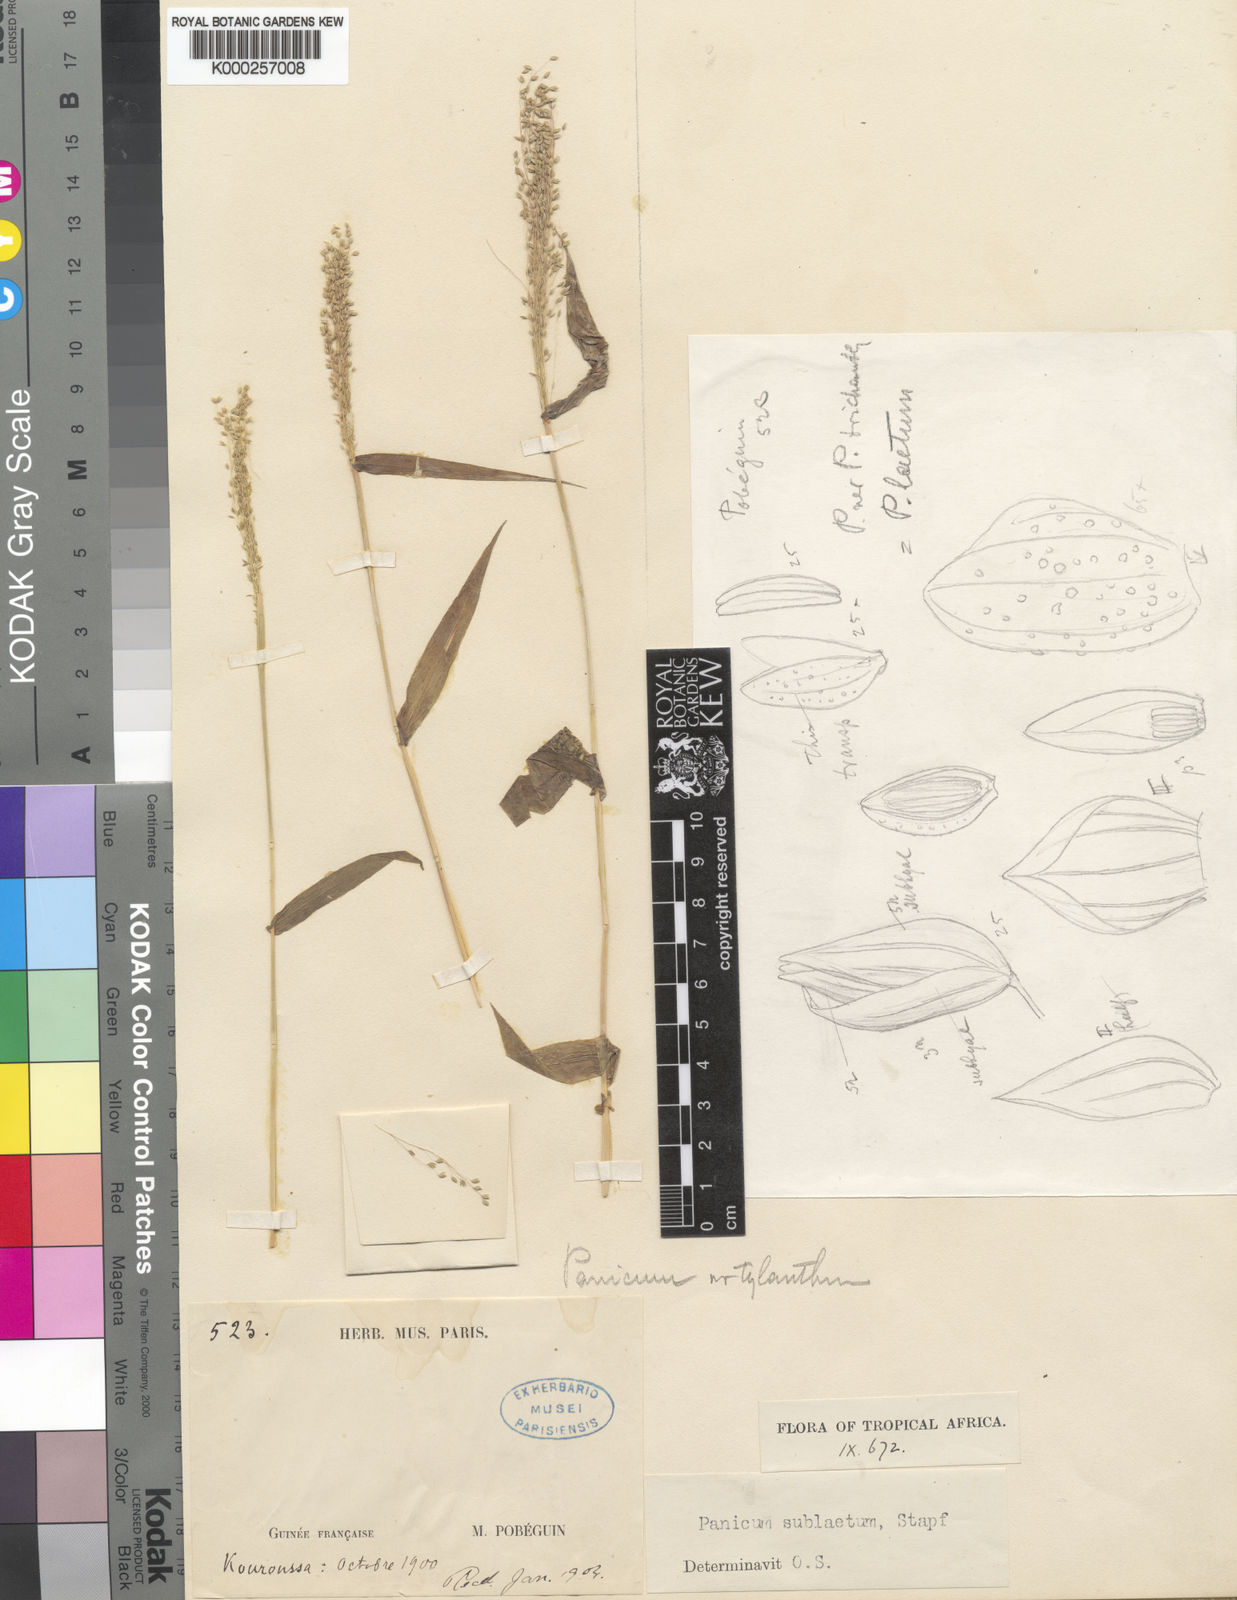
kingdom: Plantae
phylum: Tracheophyta
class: Liliopsida
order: Poales
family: Poaceae
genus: Trichanthecium
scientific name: Trichanthecium gracilicaule
